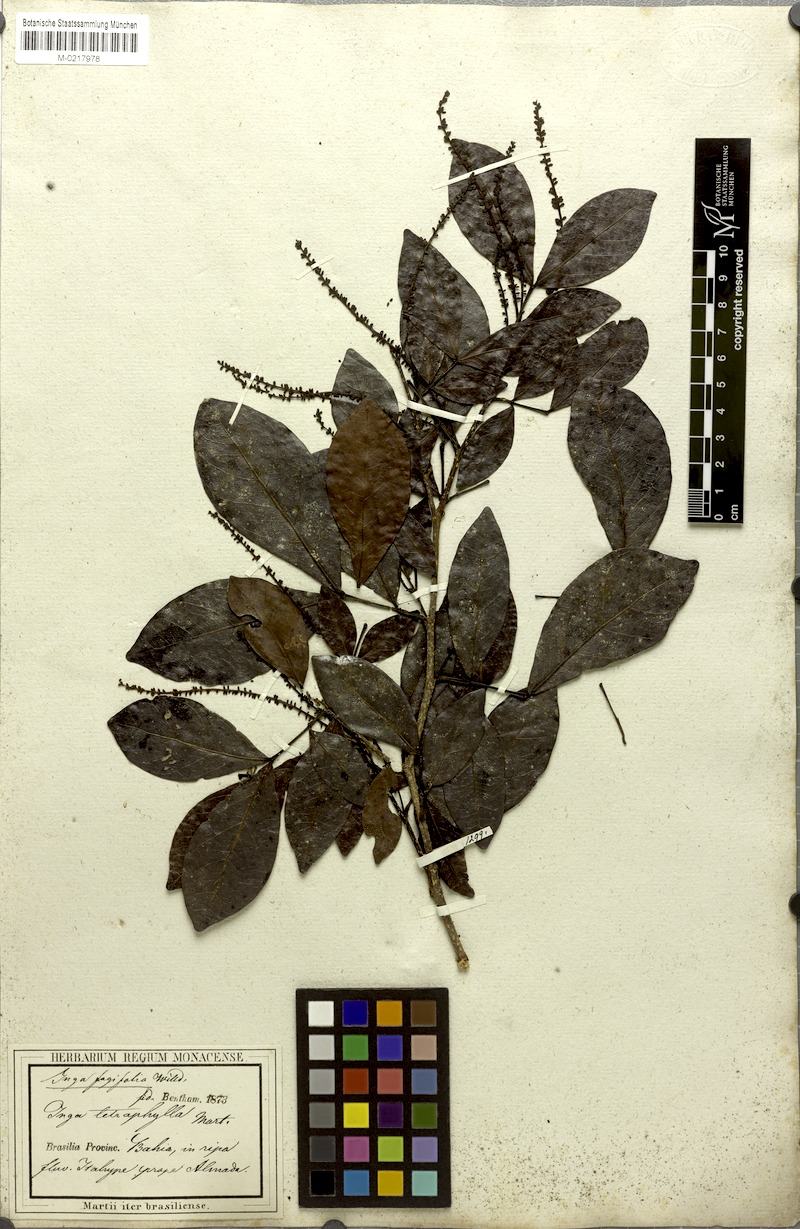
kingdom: Plantae
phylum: Tracheophyta
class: Magnoliopsida
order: Fabales
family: Fabaceae
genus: Inga
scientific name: Inga laurina
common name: Red wood
